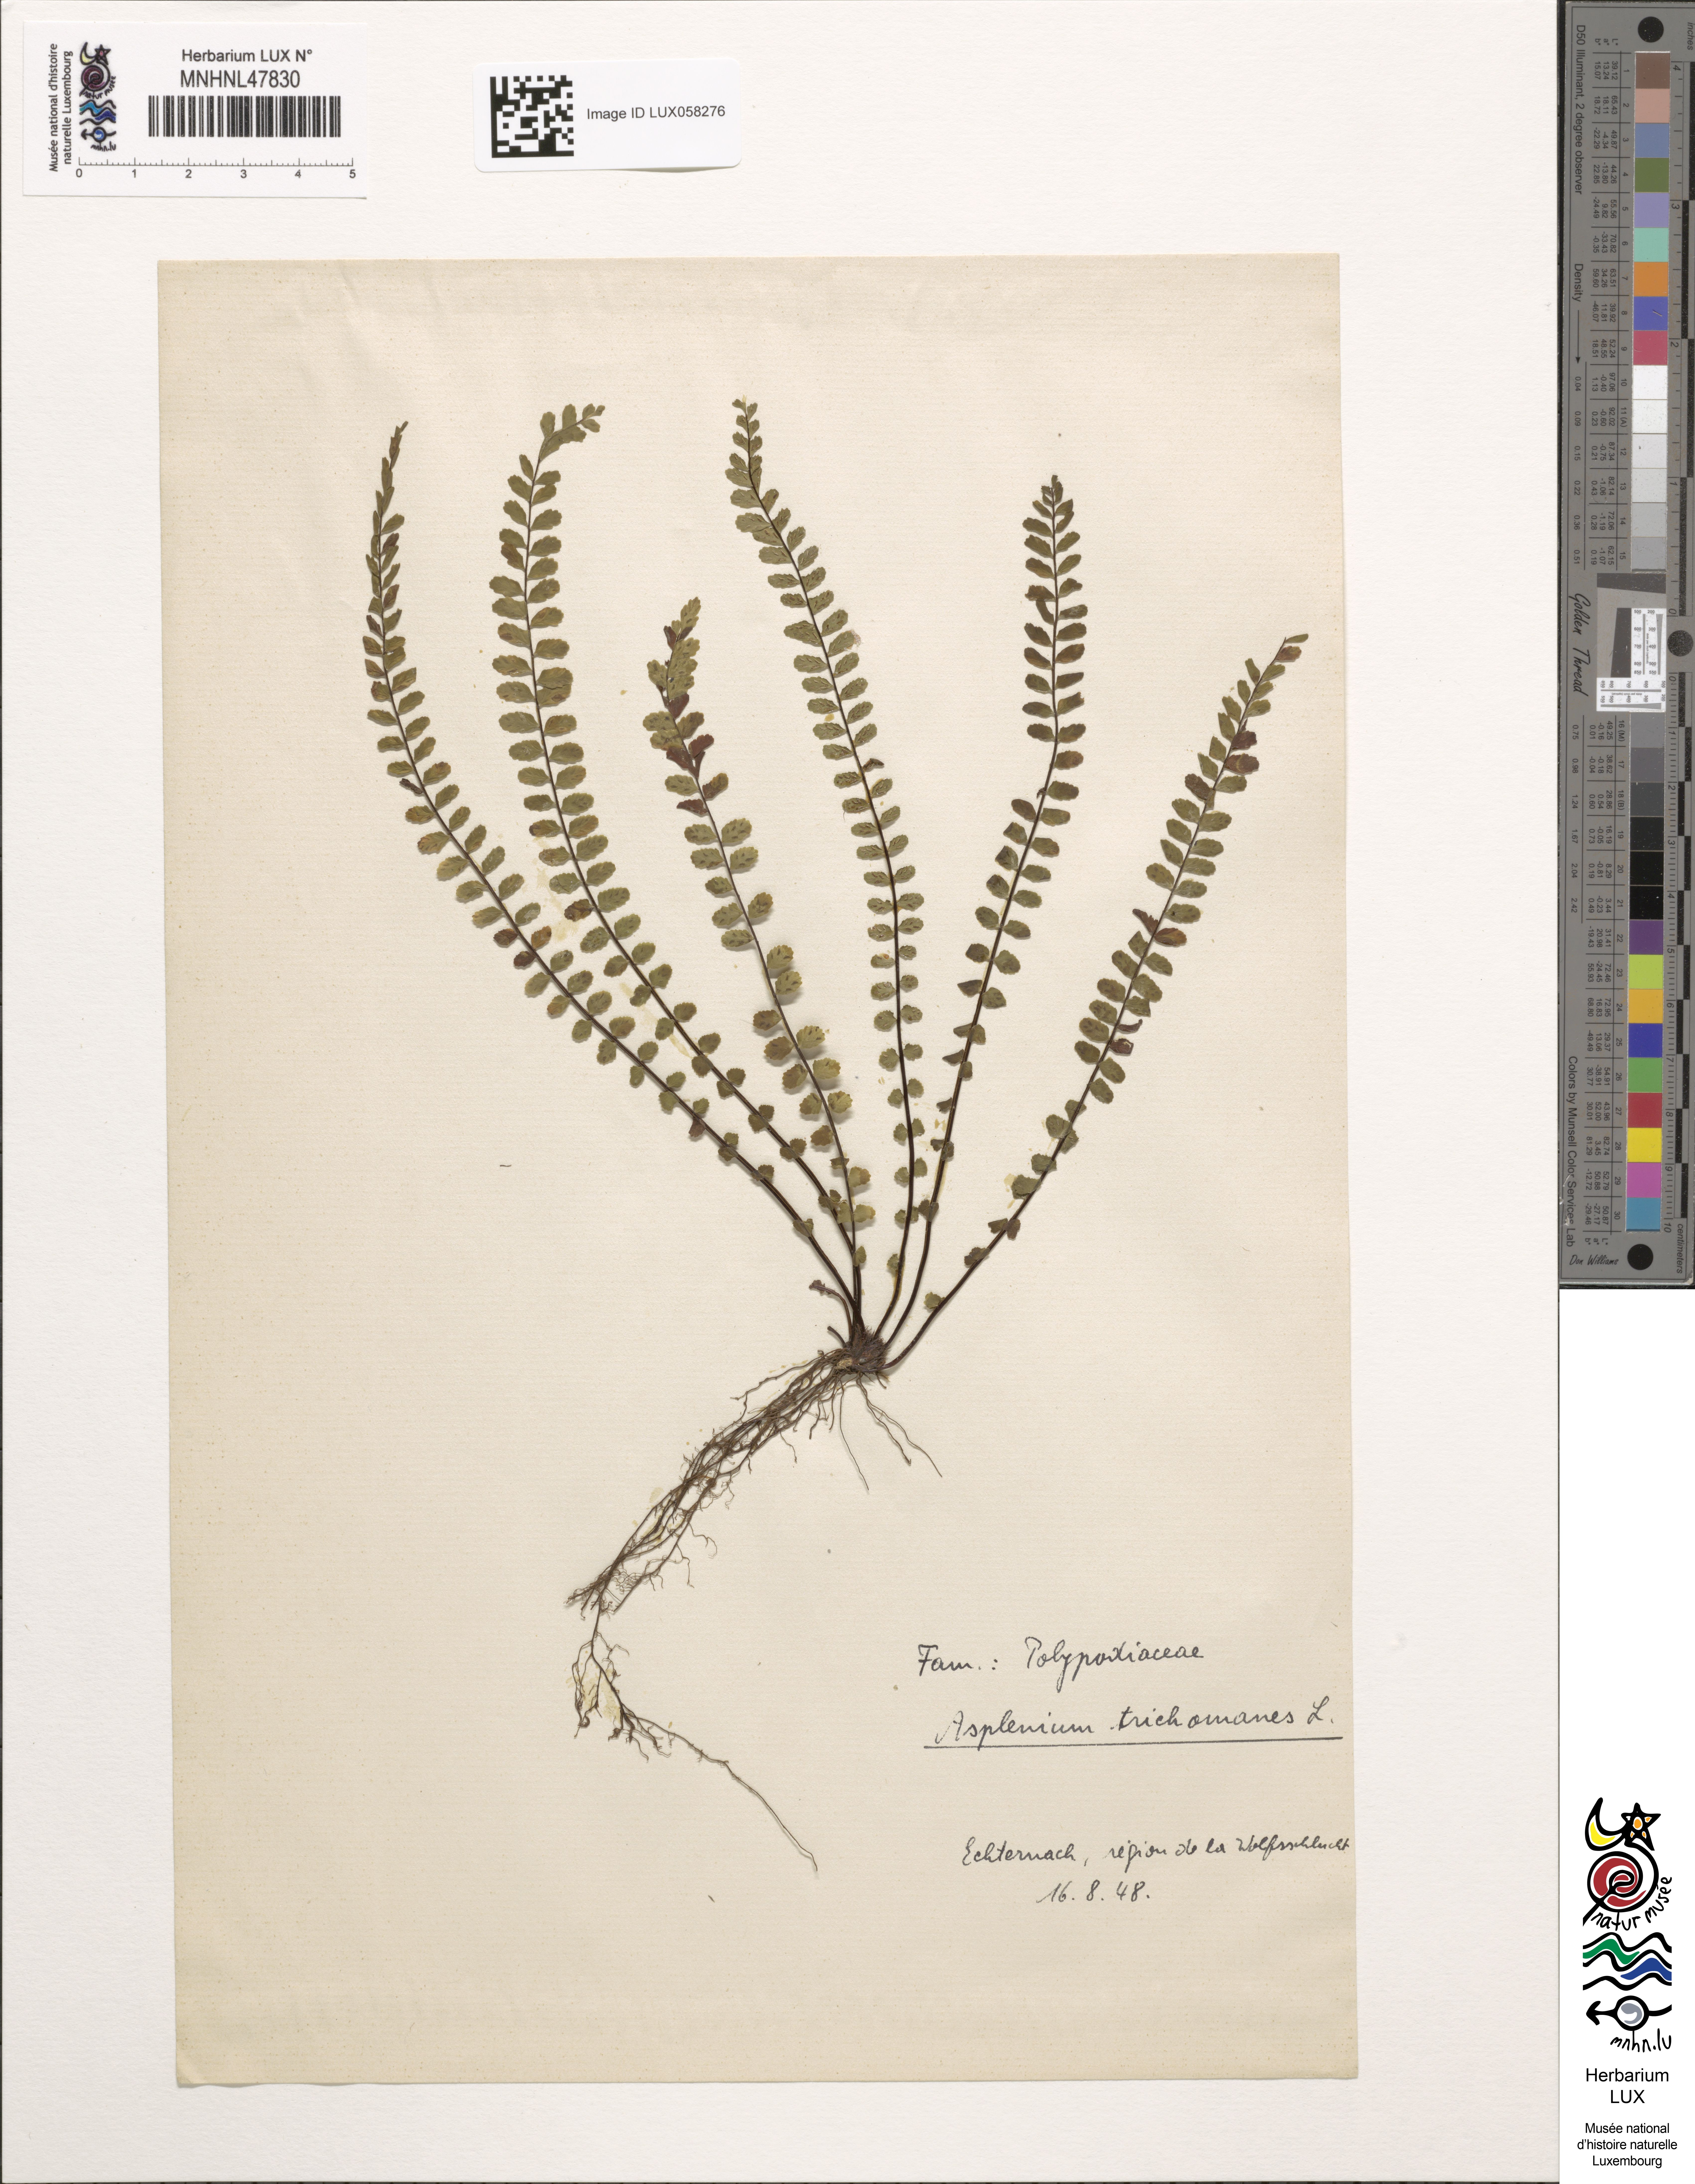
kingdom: Plantae
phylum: Tracheophyta
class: Polypodiopsida
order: Polypodiales
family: Aspleniaceae
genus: Asplenium
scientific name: Asplenium trichomanes
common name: Maidenhair spleenwort
